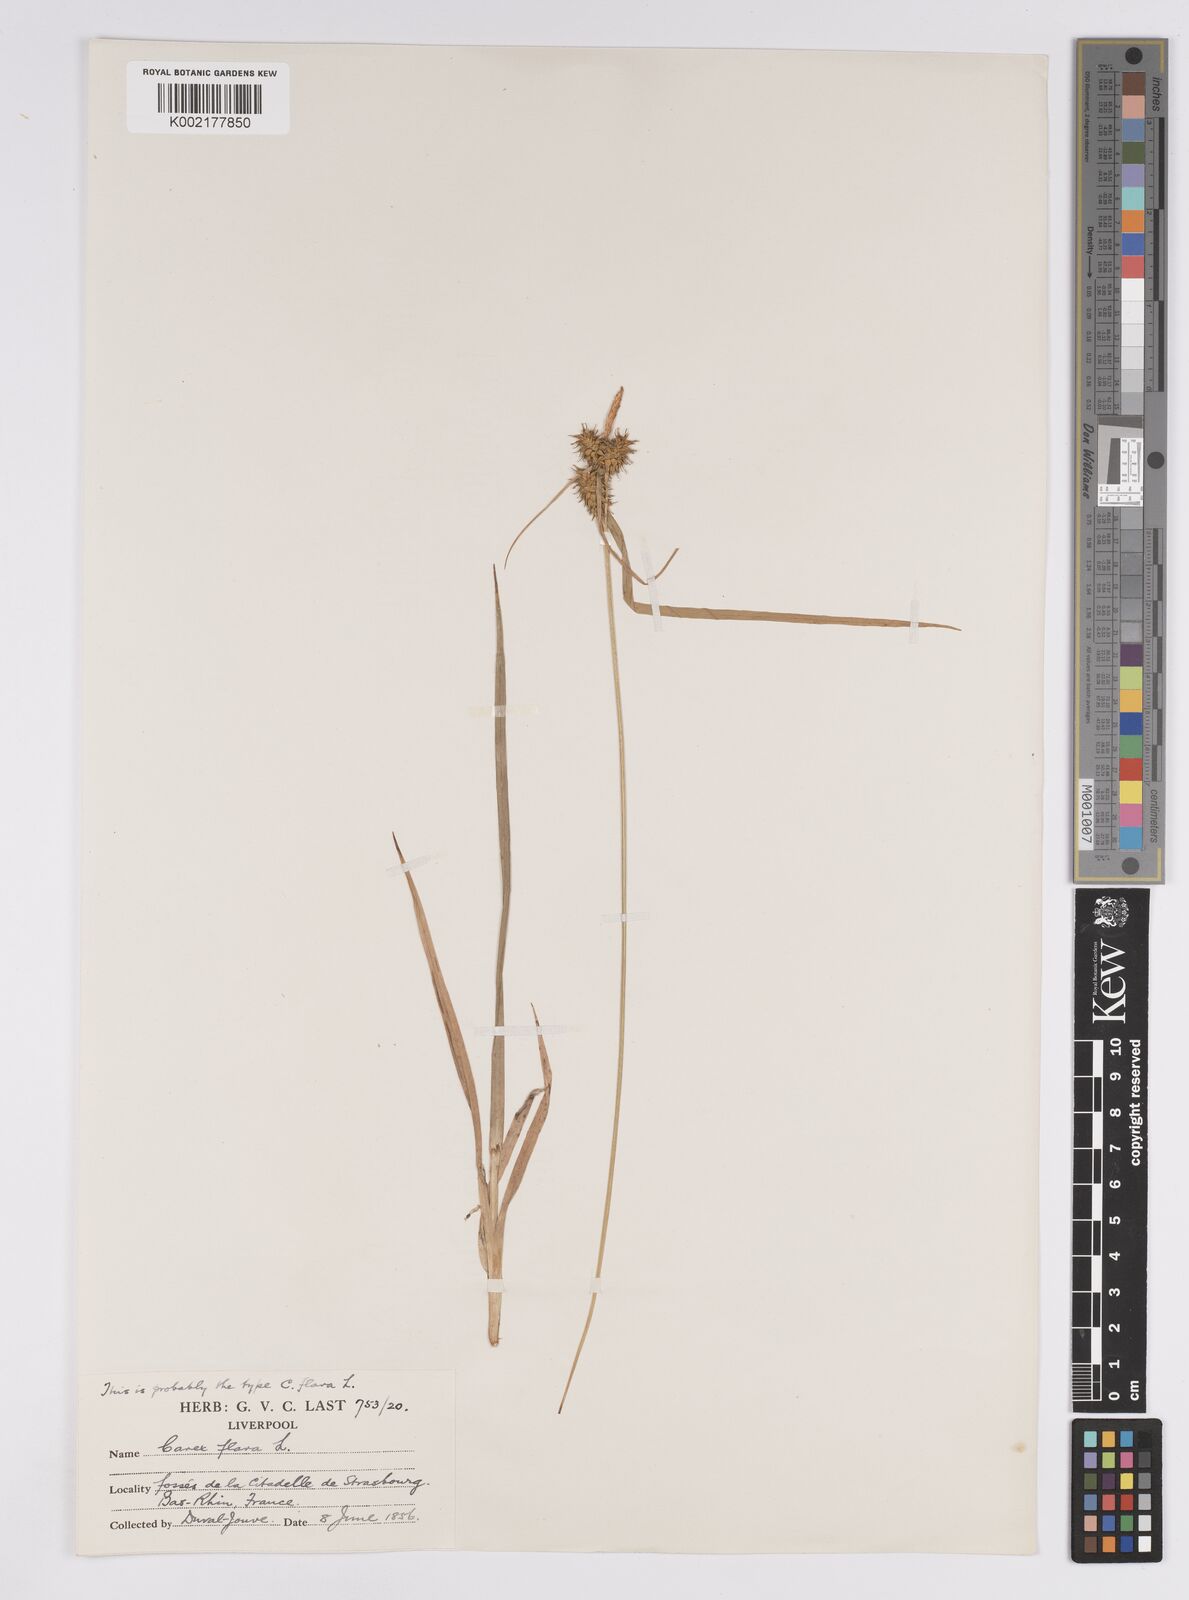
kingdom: Plantae
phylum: Tracheophyta
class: Liliopsida
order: Poales
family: Cyperaceae
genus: Carex
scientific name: Carex flava
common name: Large yellow-sedge
